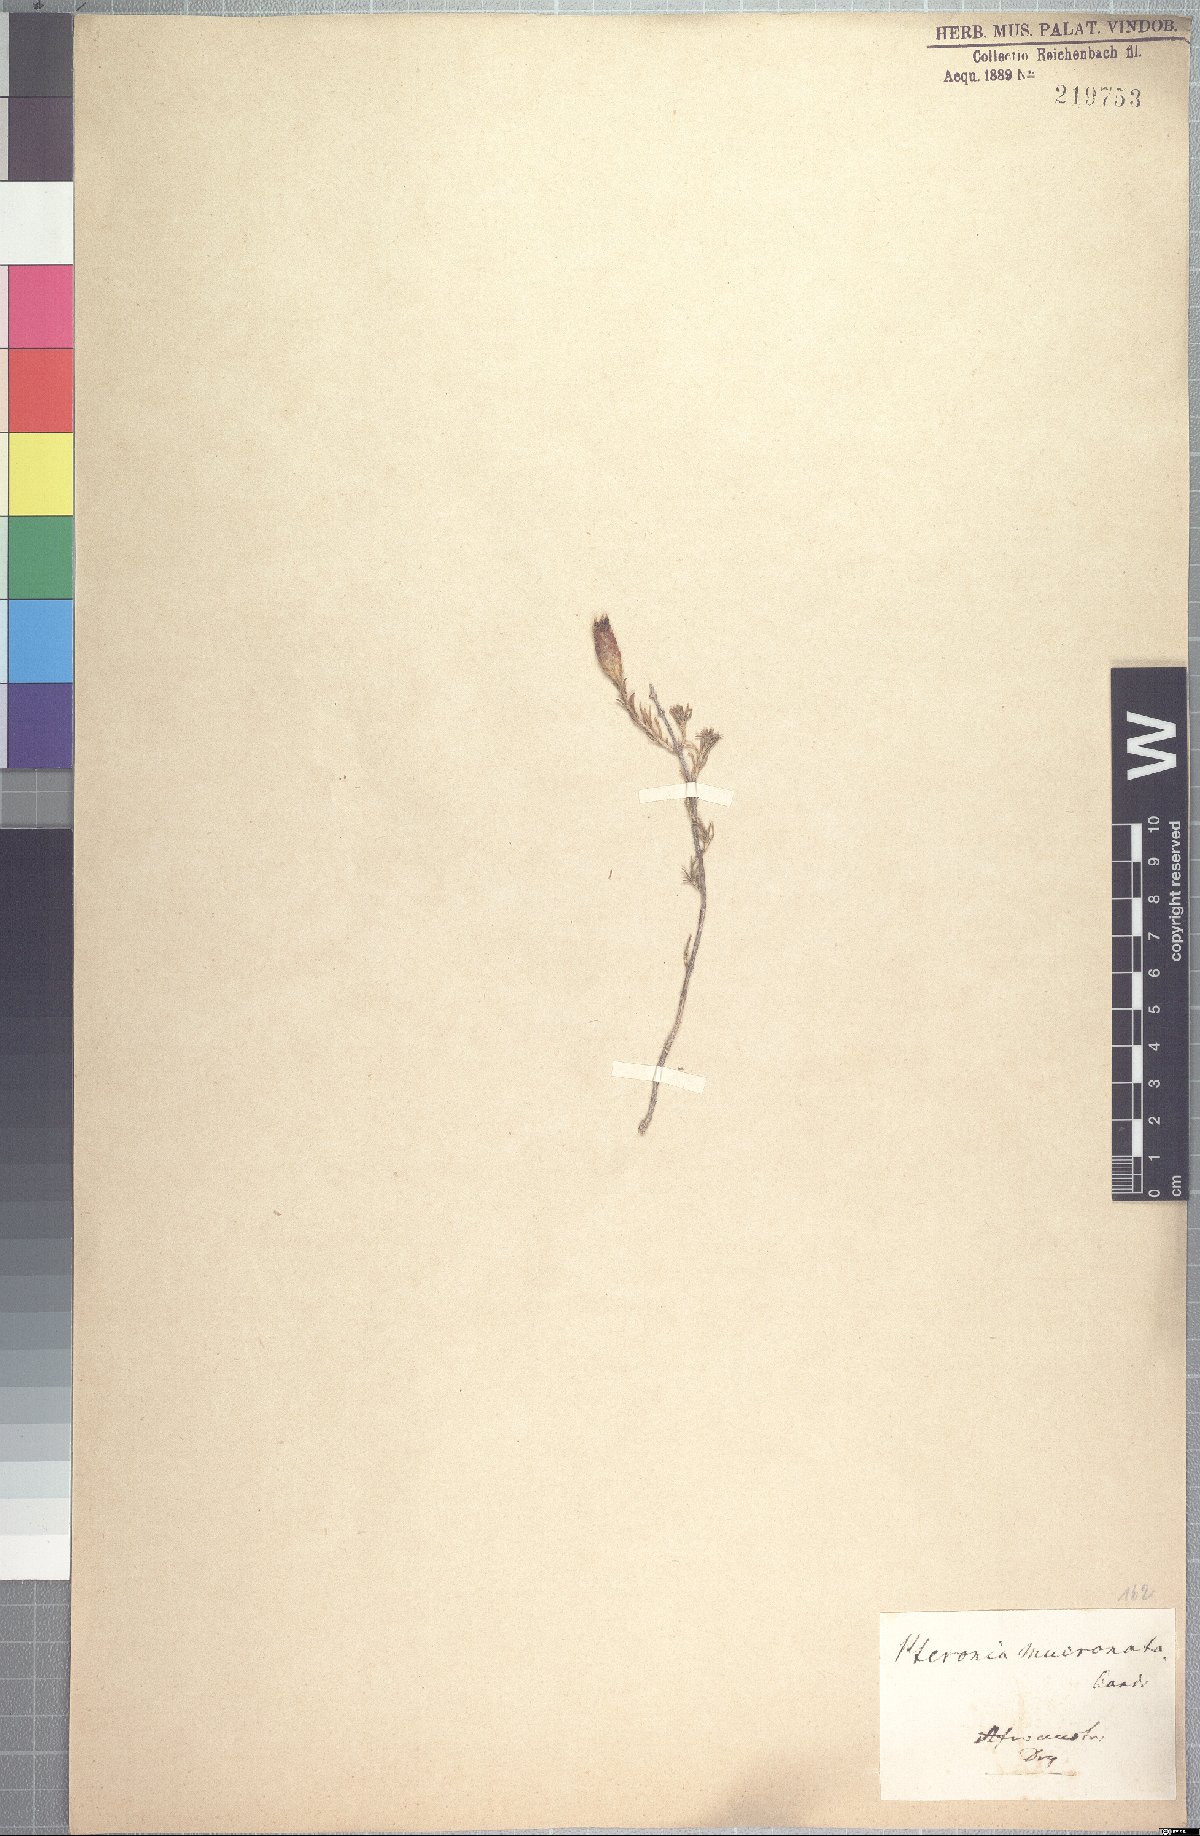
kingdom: Plantae
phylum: Tracheophyta
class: Magnoliopsida
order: Asterales
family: Asteraceae
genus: Pteronia
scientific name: Pteronia mucronata
